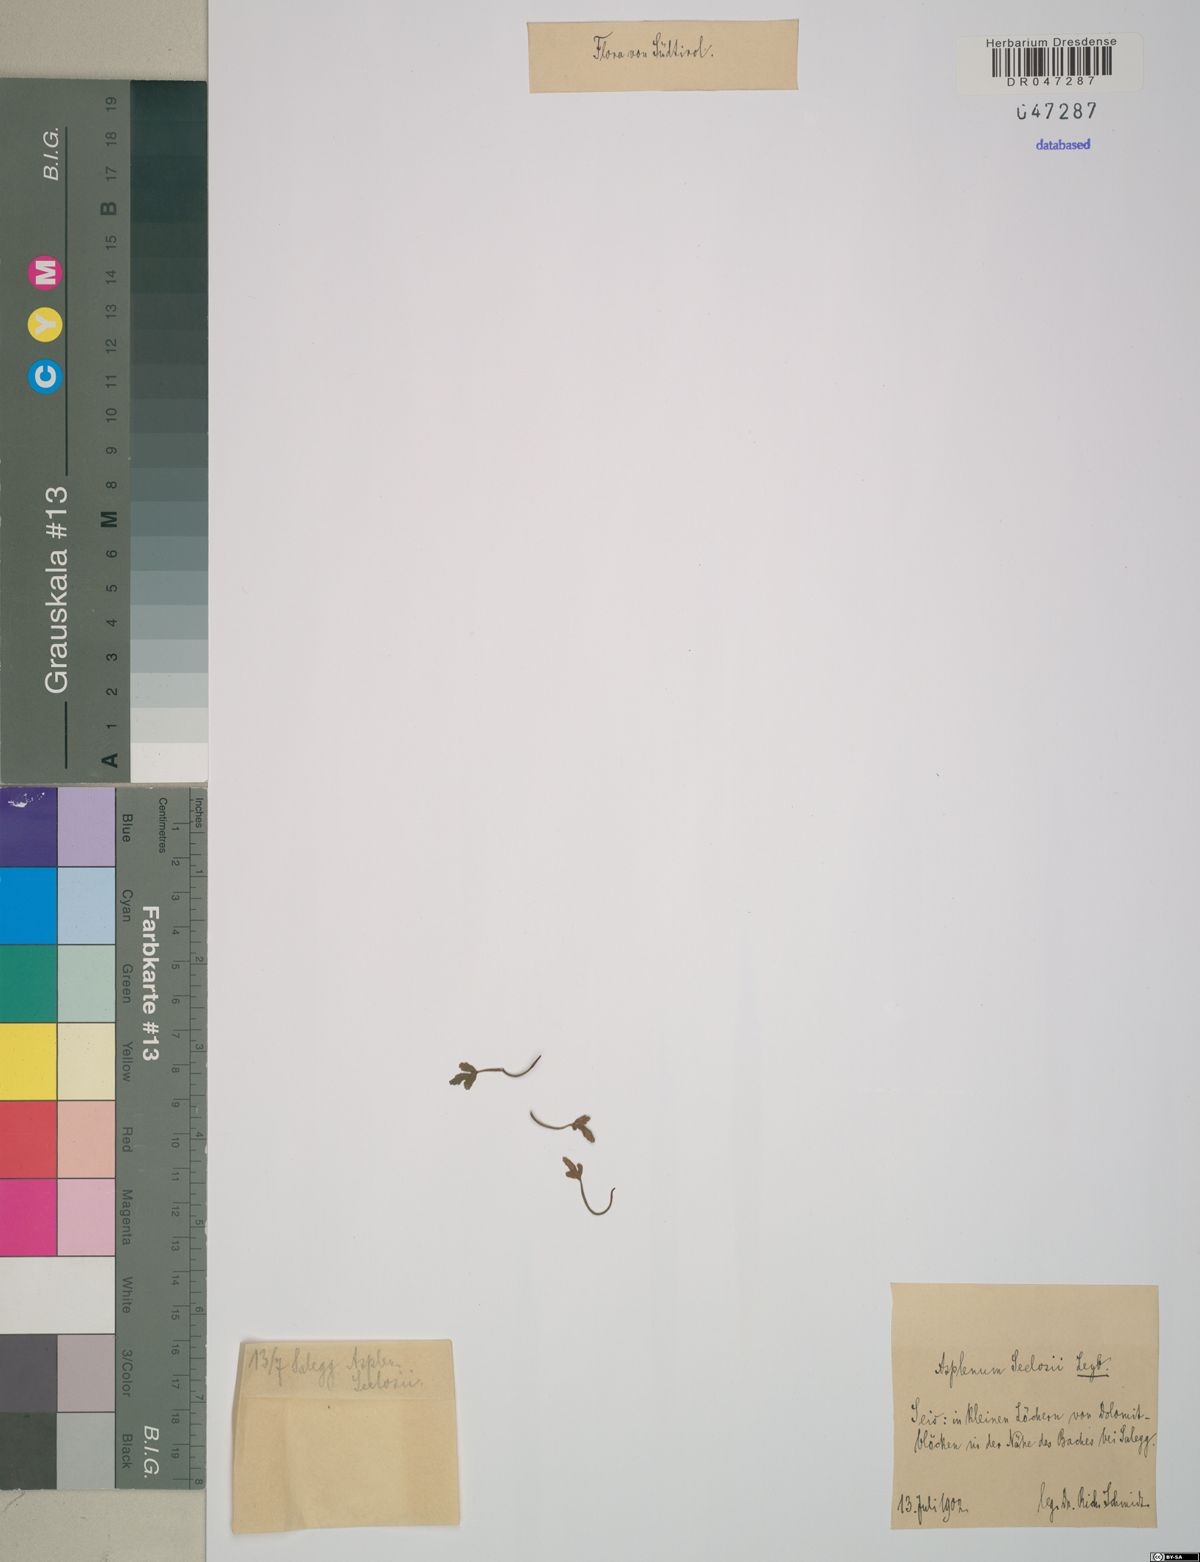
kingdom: Plantae
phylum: Tracheophyta
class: Polypodiopsida
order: Polypodiales
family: Aspleniaceae
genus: Asplenium
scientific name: Asplenium seelosii
